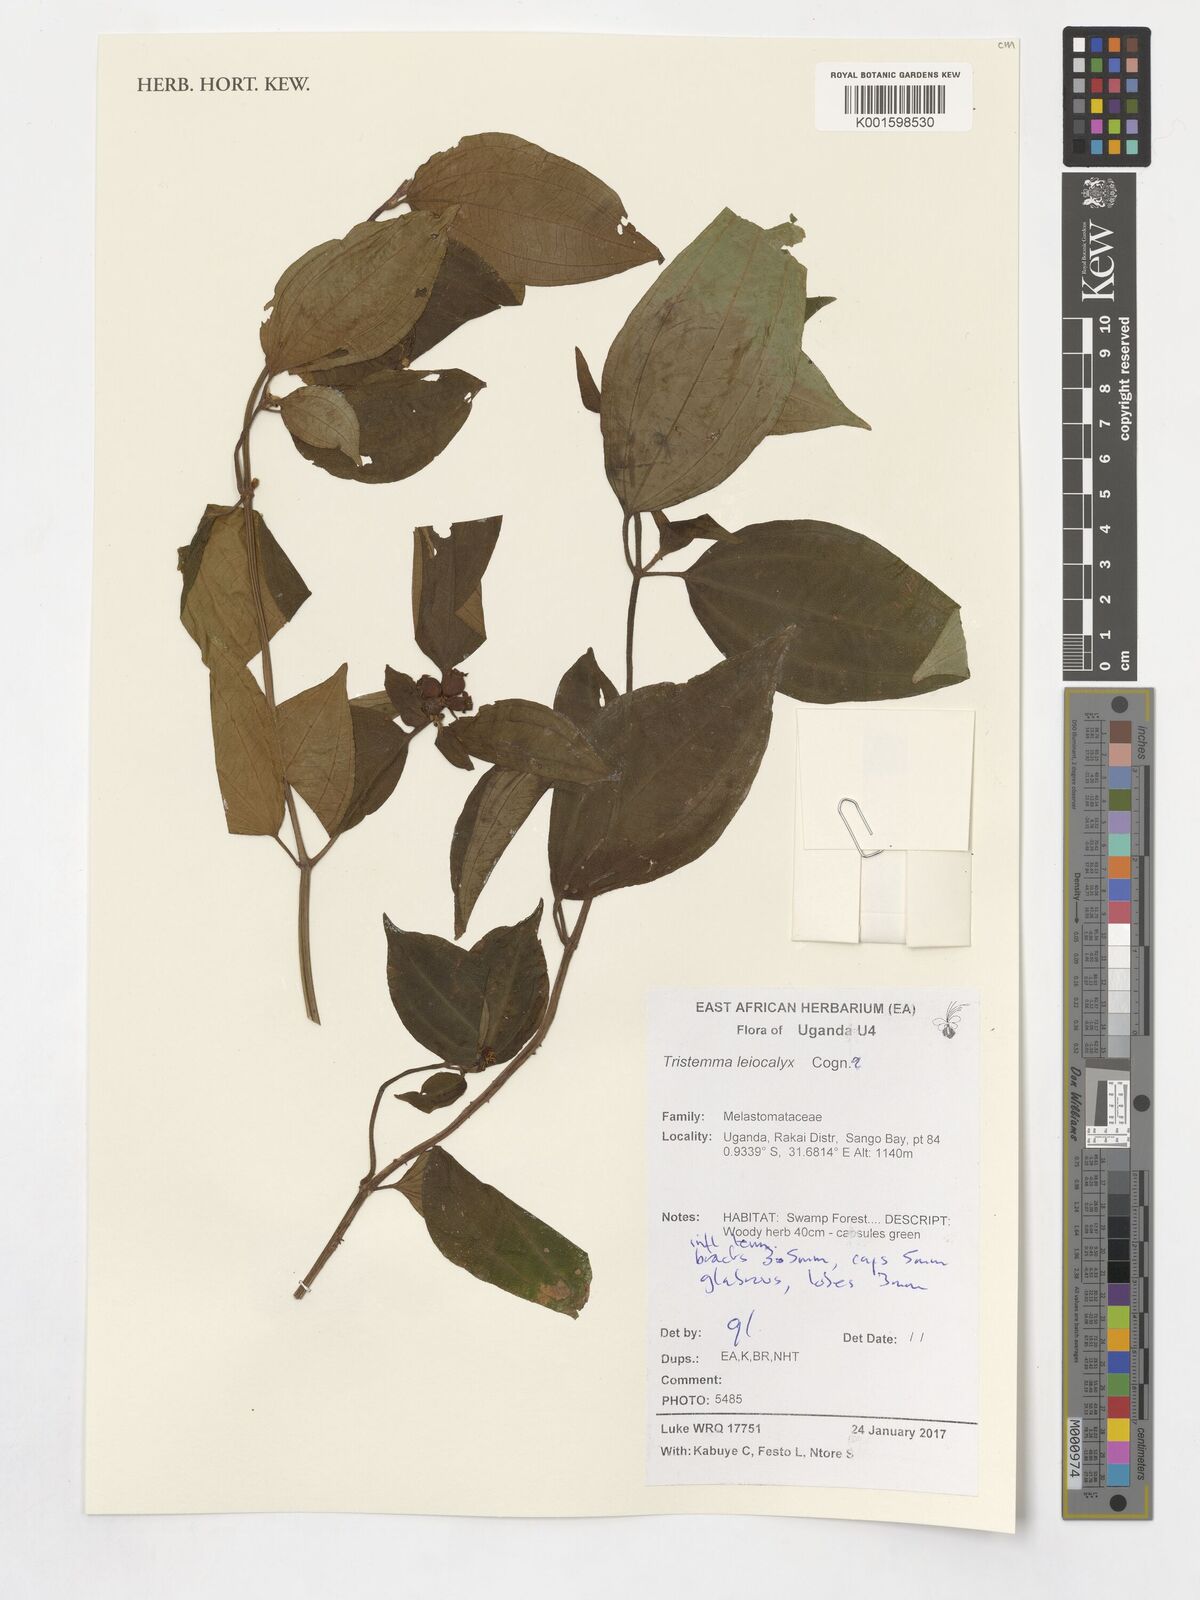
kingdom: Plantae
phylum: Tracheophyta
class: Magnoliopsida
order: Myrtales
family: Melastomataceae
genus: Tristemma
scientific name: Tristemma leiocalyx
